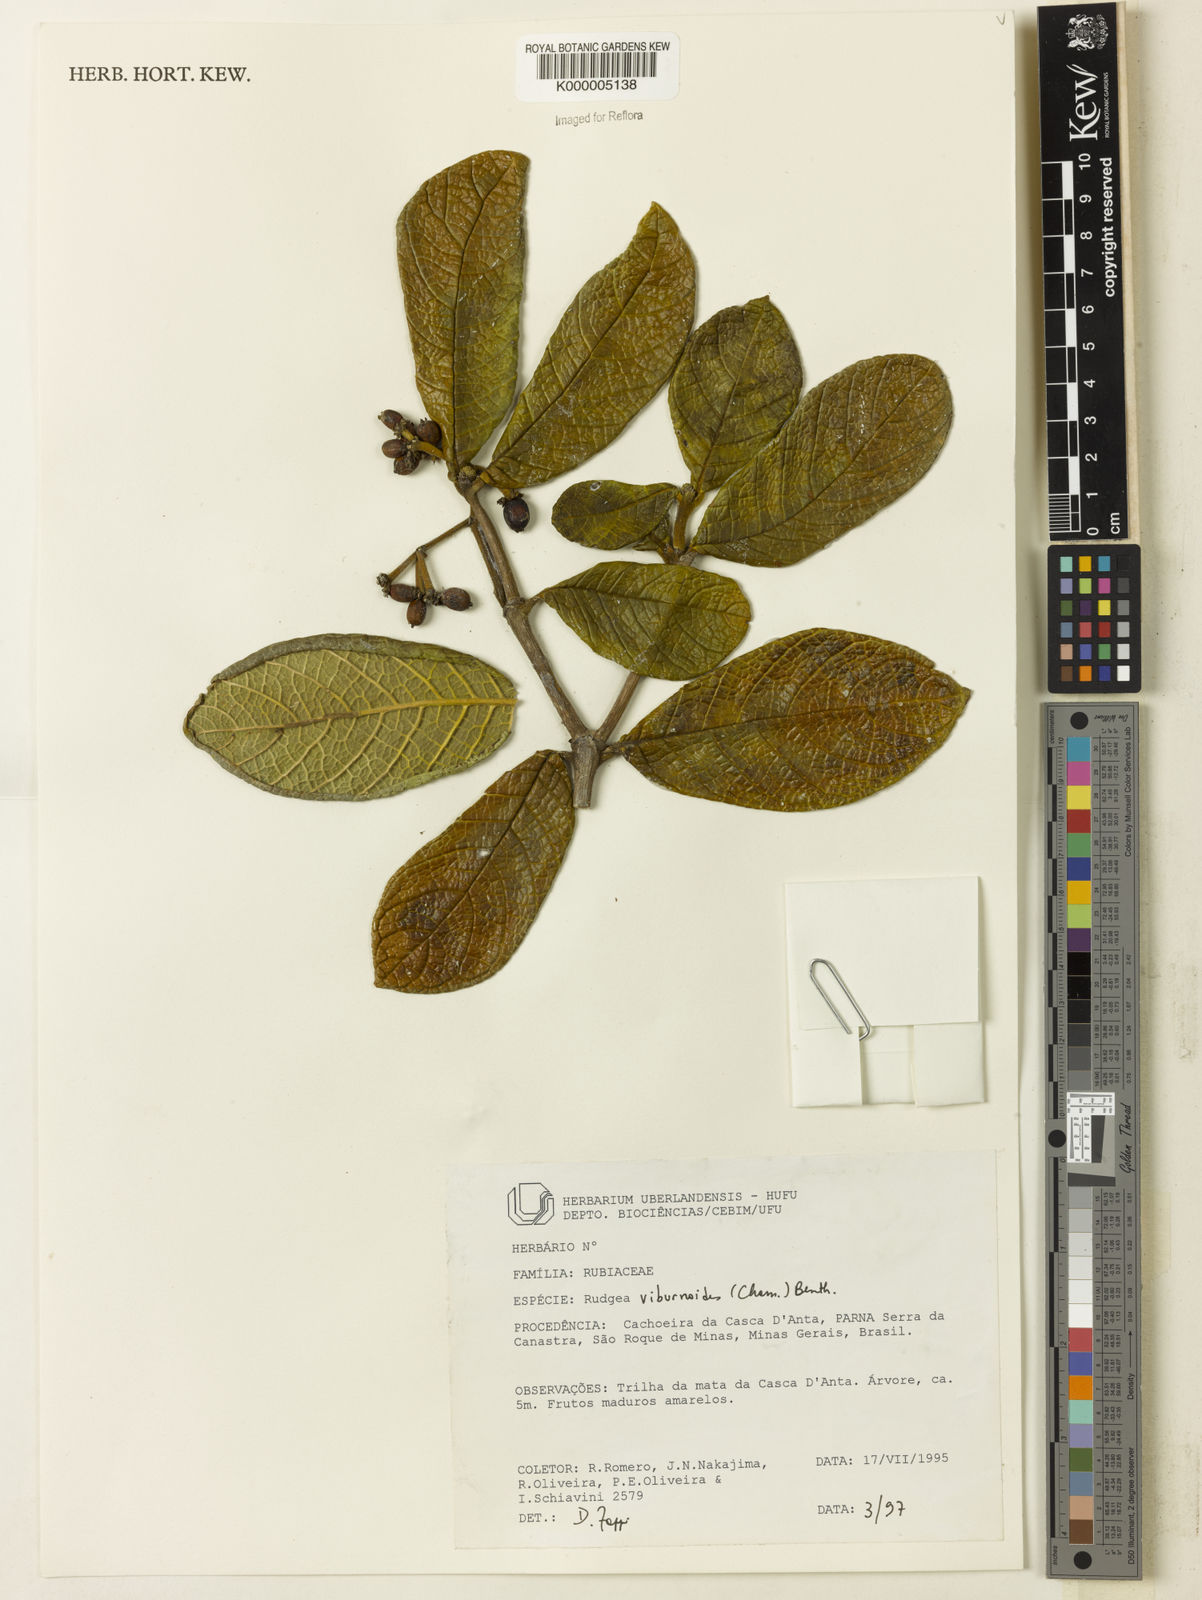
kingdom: Plantae
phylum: Tracheophyta
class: Magnoliopsida
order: Gentianales
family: Rubiaceae
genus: Rudgea
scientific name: Rudgea viburnoides
